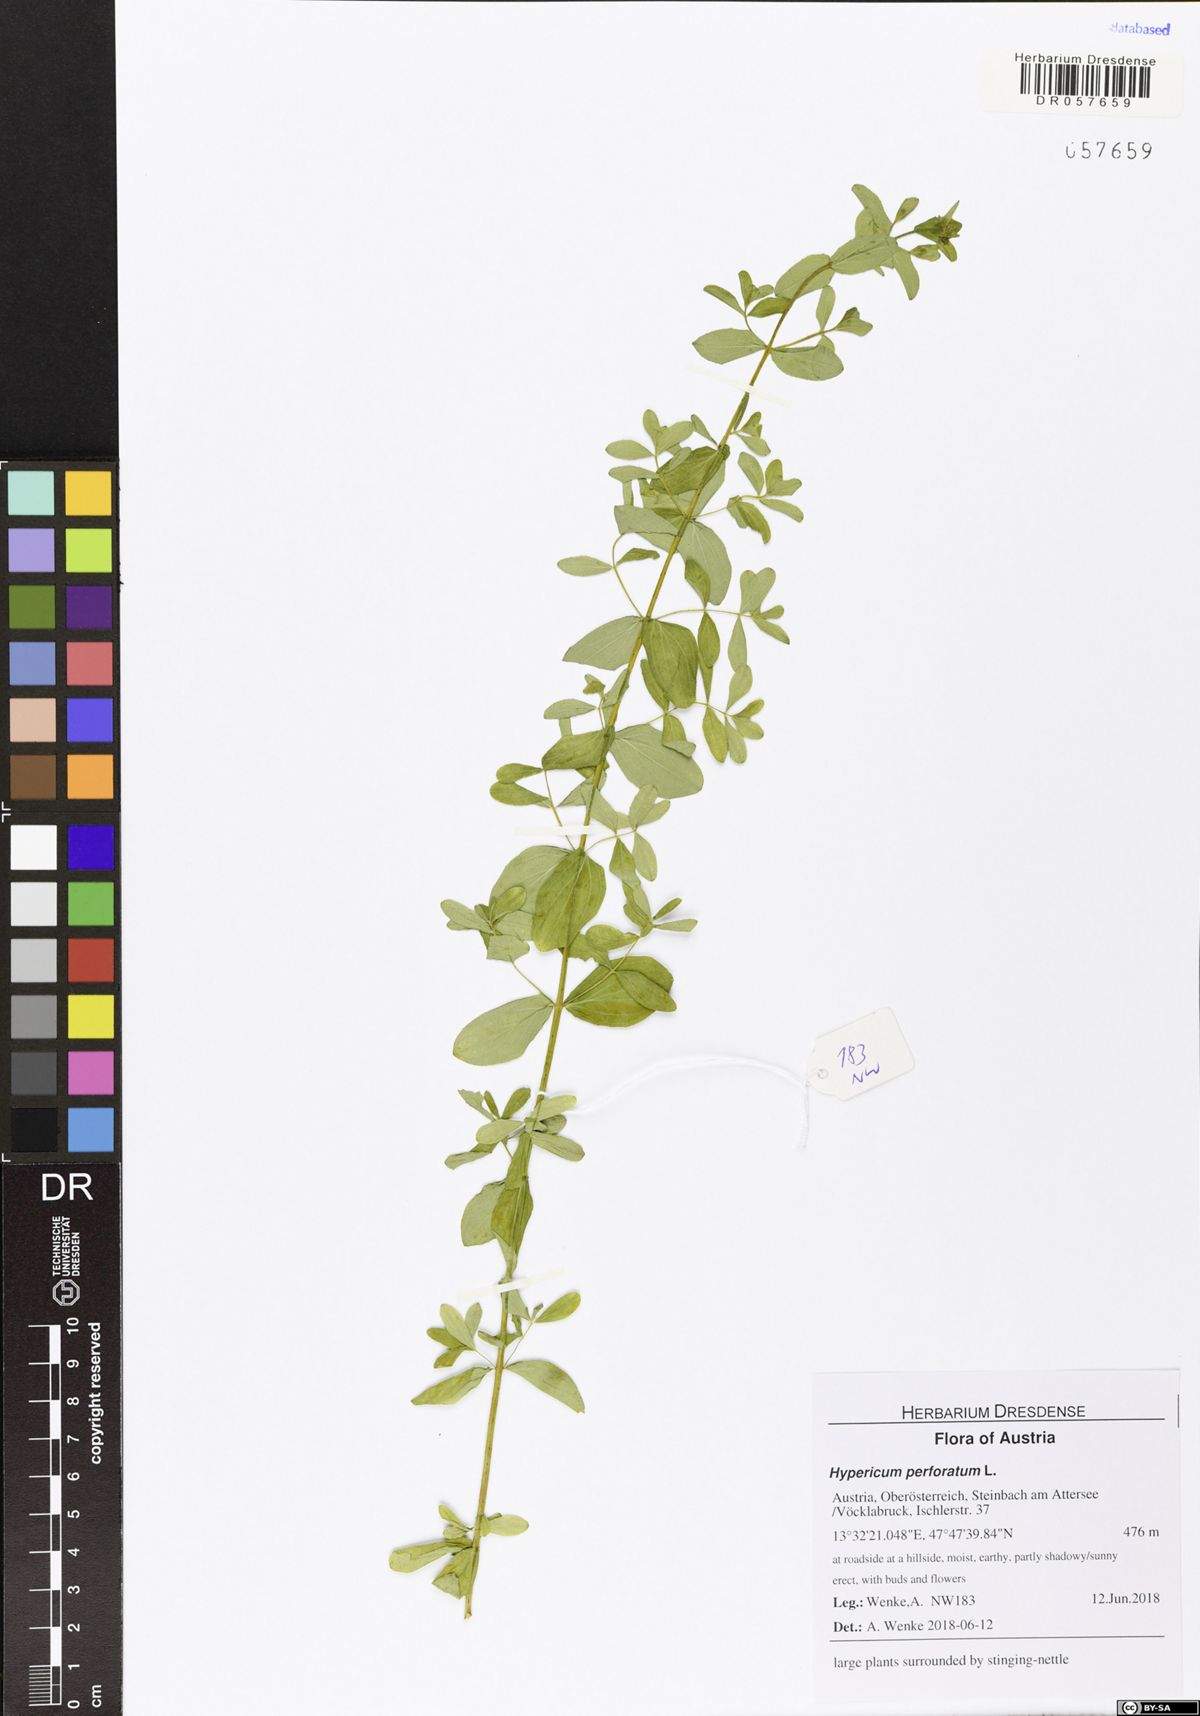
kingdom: Plantae
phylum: Tracheophyta
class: Magnoliopsida
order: Malpighiales
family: Hypericaceae
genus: Hypericum
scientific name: Hypericum perforatum
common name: Common st. johnswort
